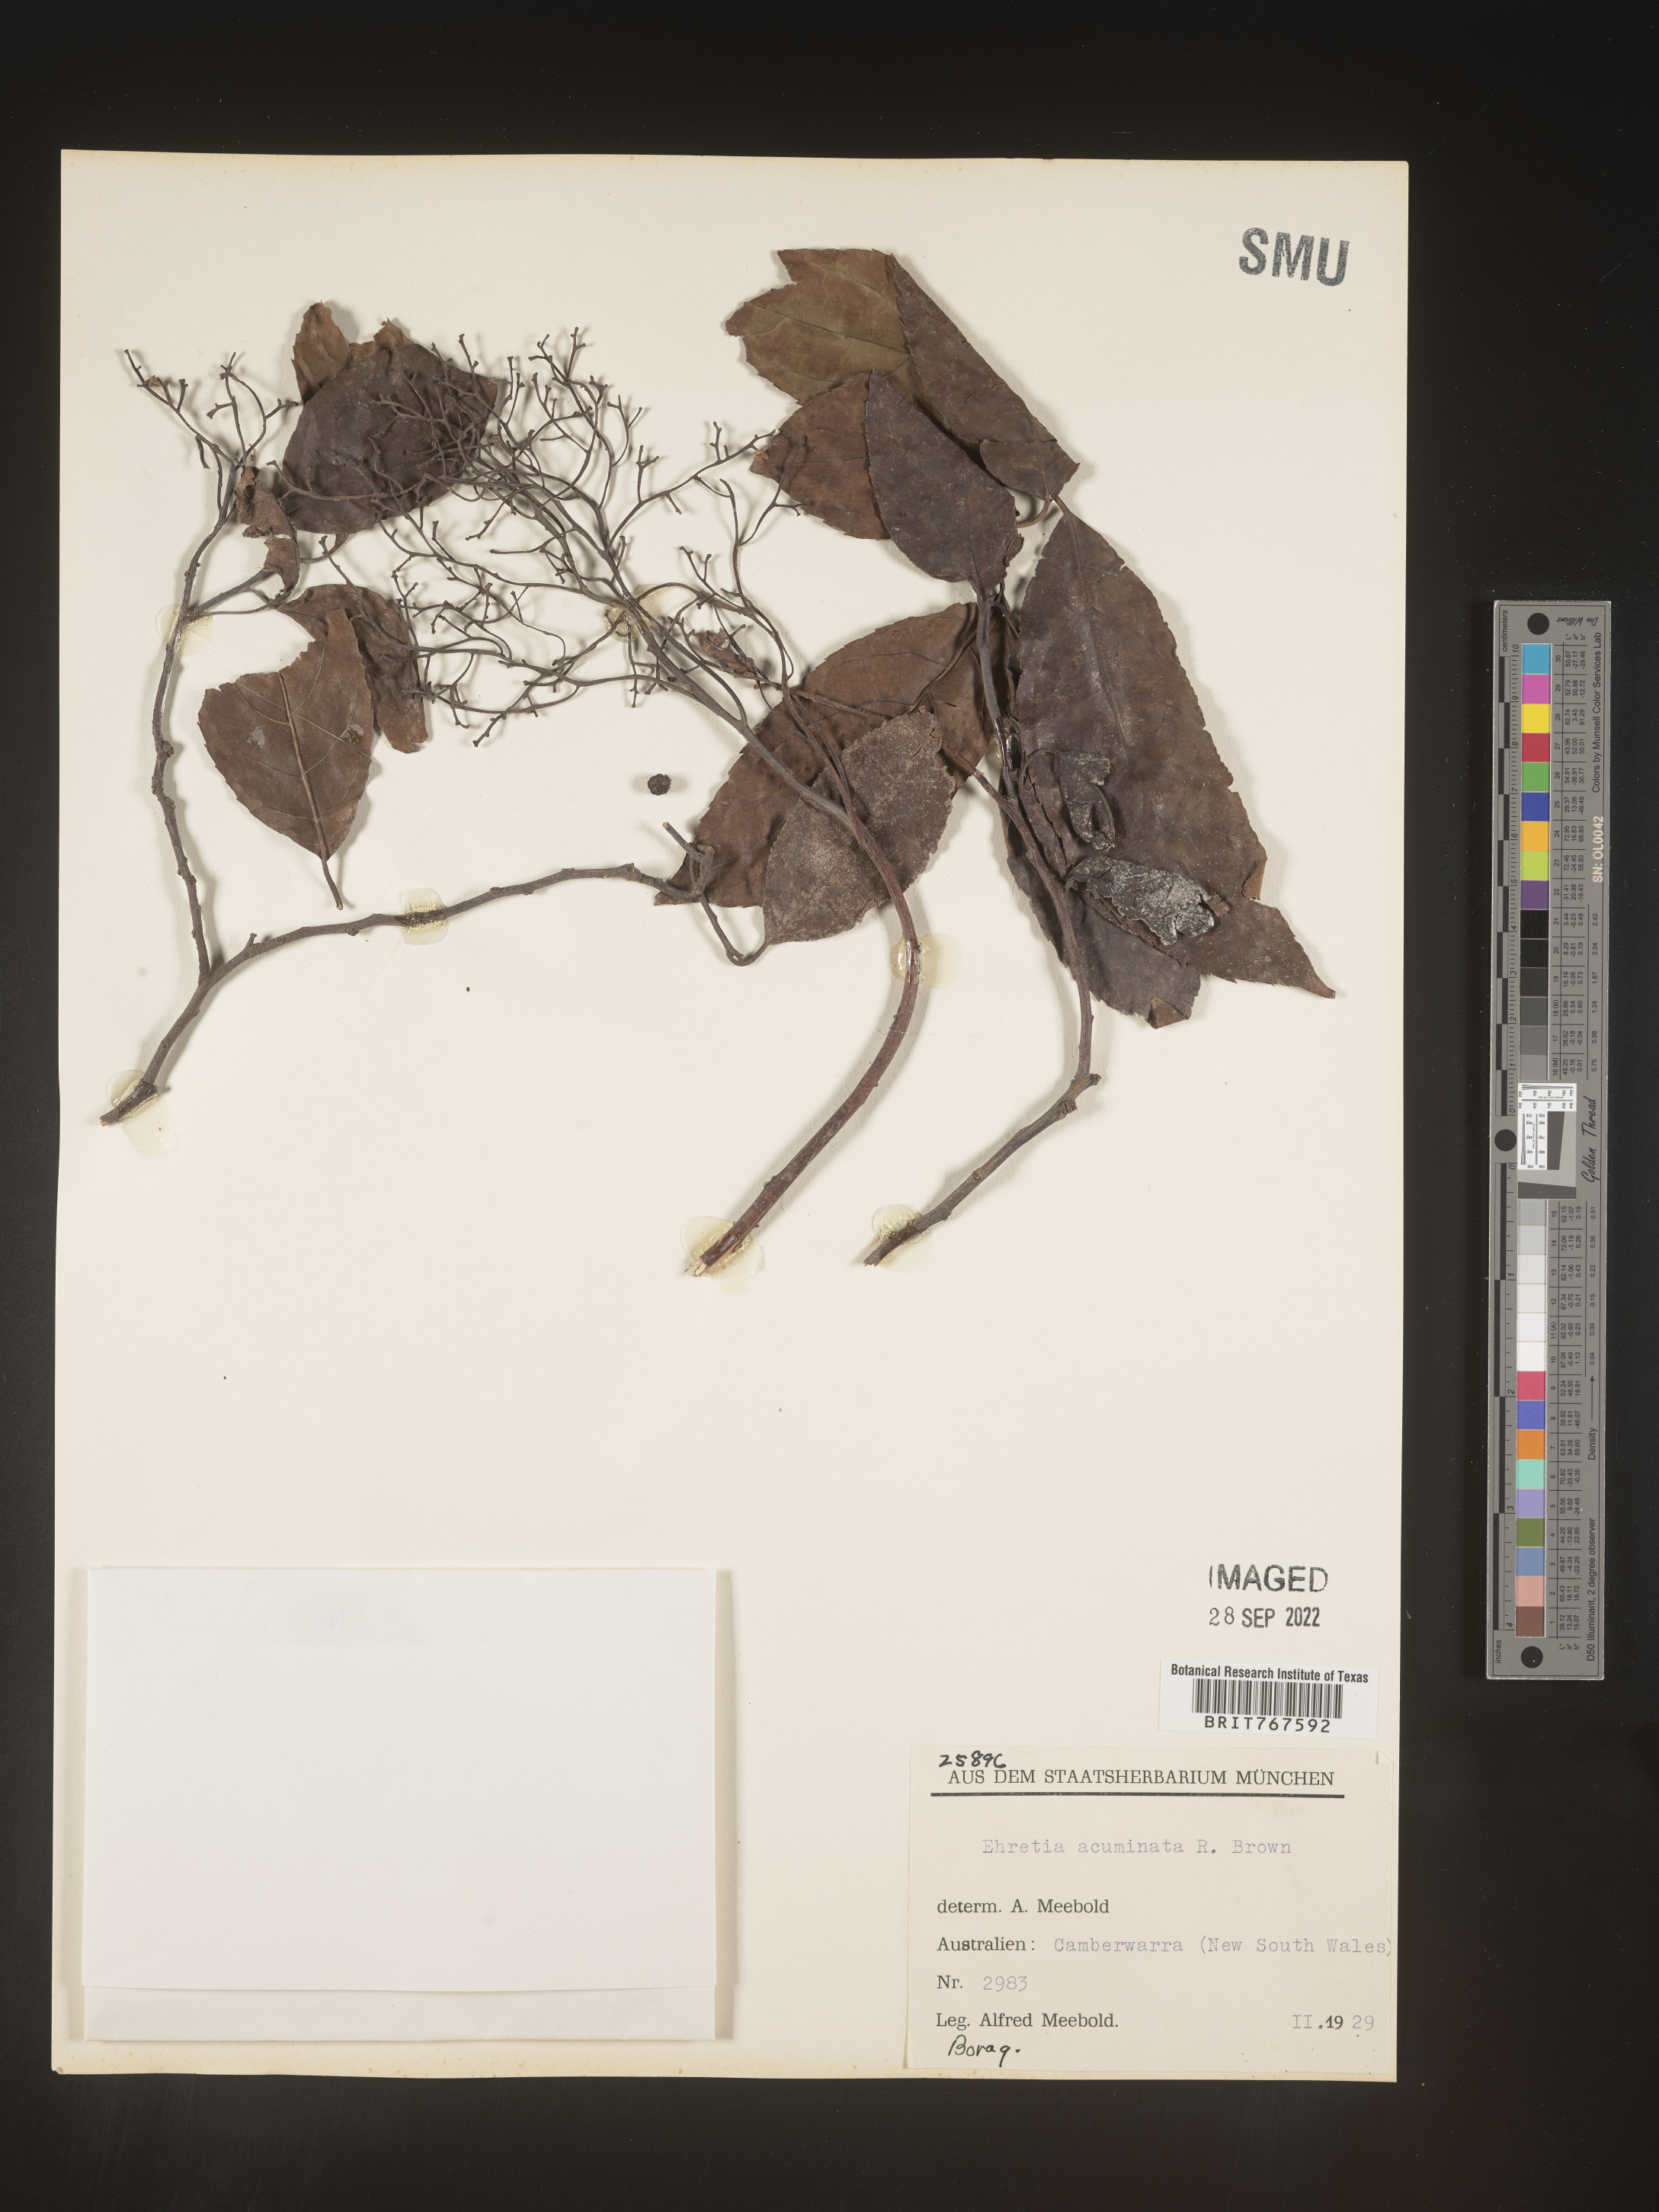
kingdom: Plantae
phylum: Tracheophyta
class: Magnoliopsida
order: Boraginales
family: Ehretiaceae
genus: Ehretia
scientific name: Ehretia
